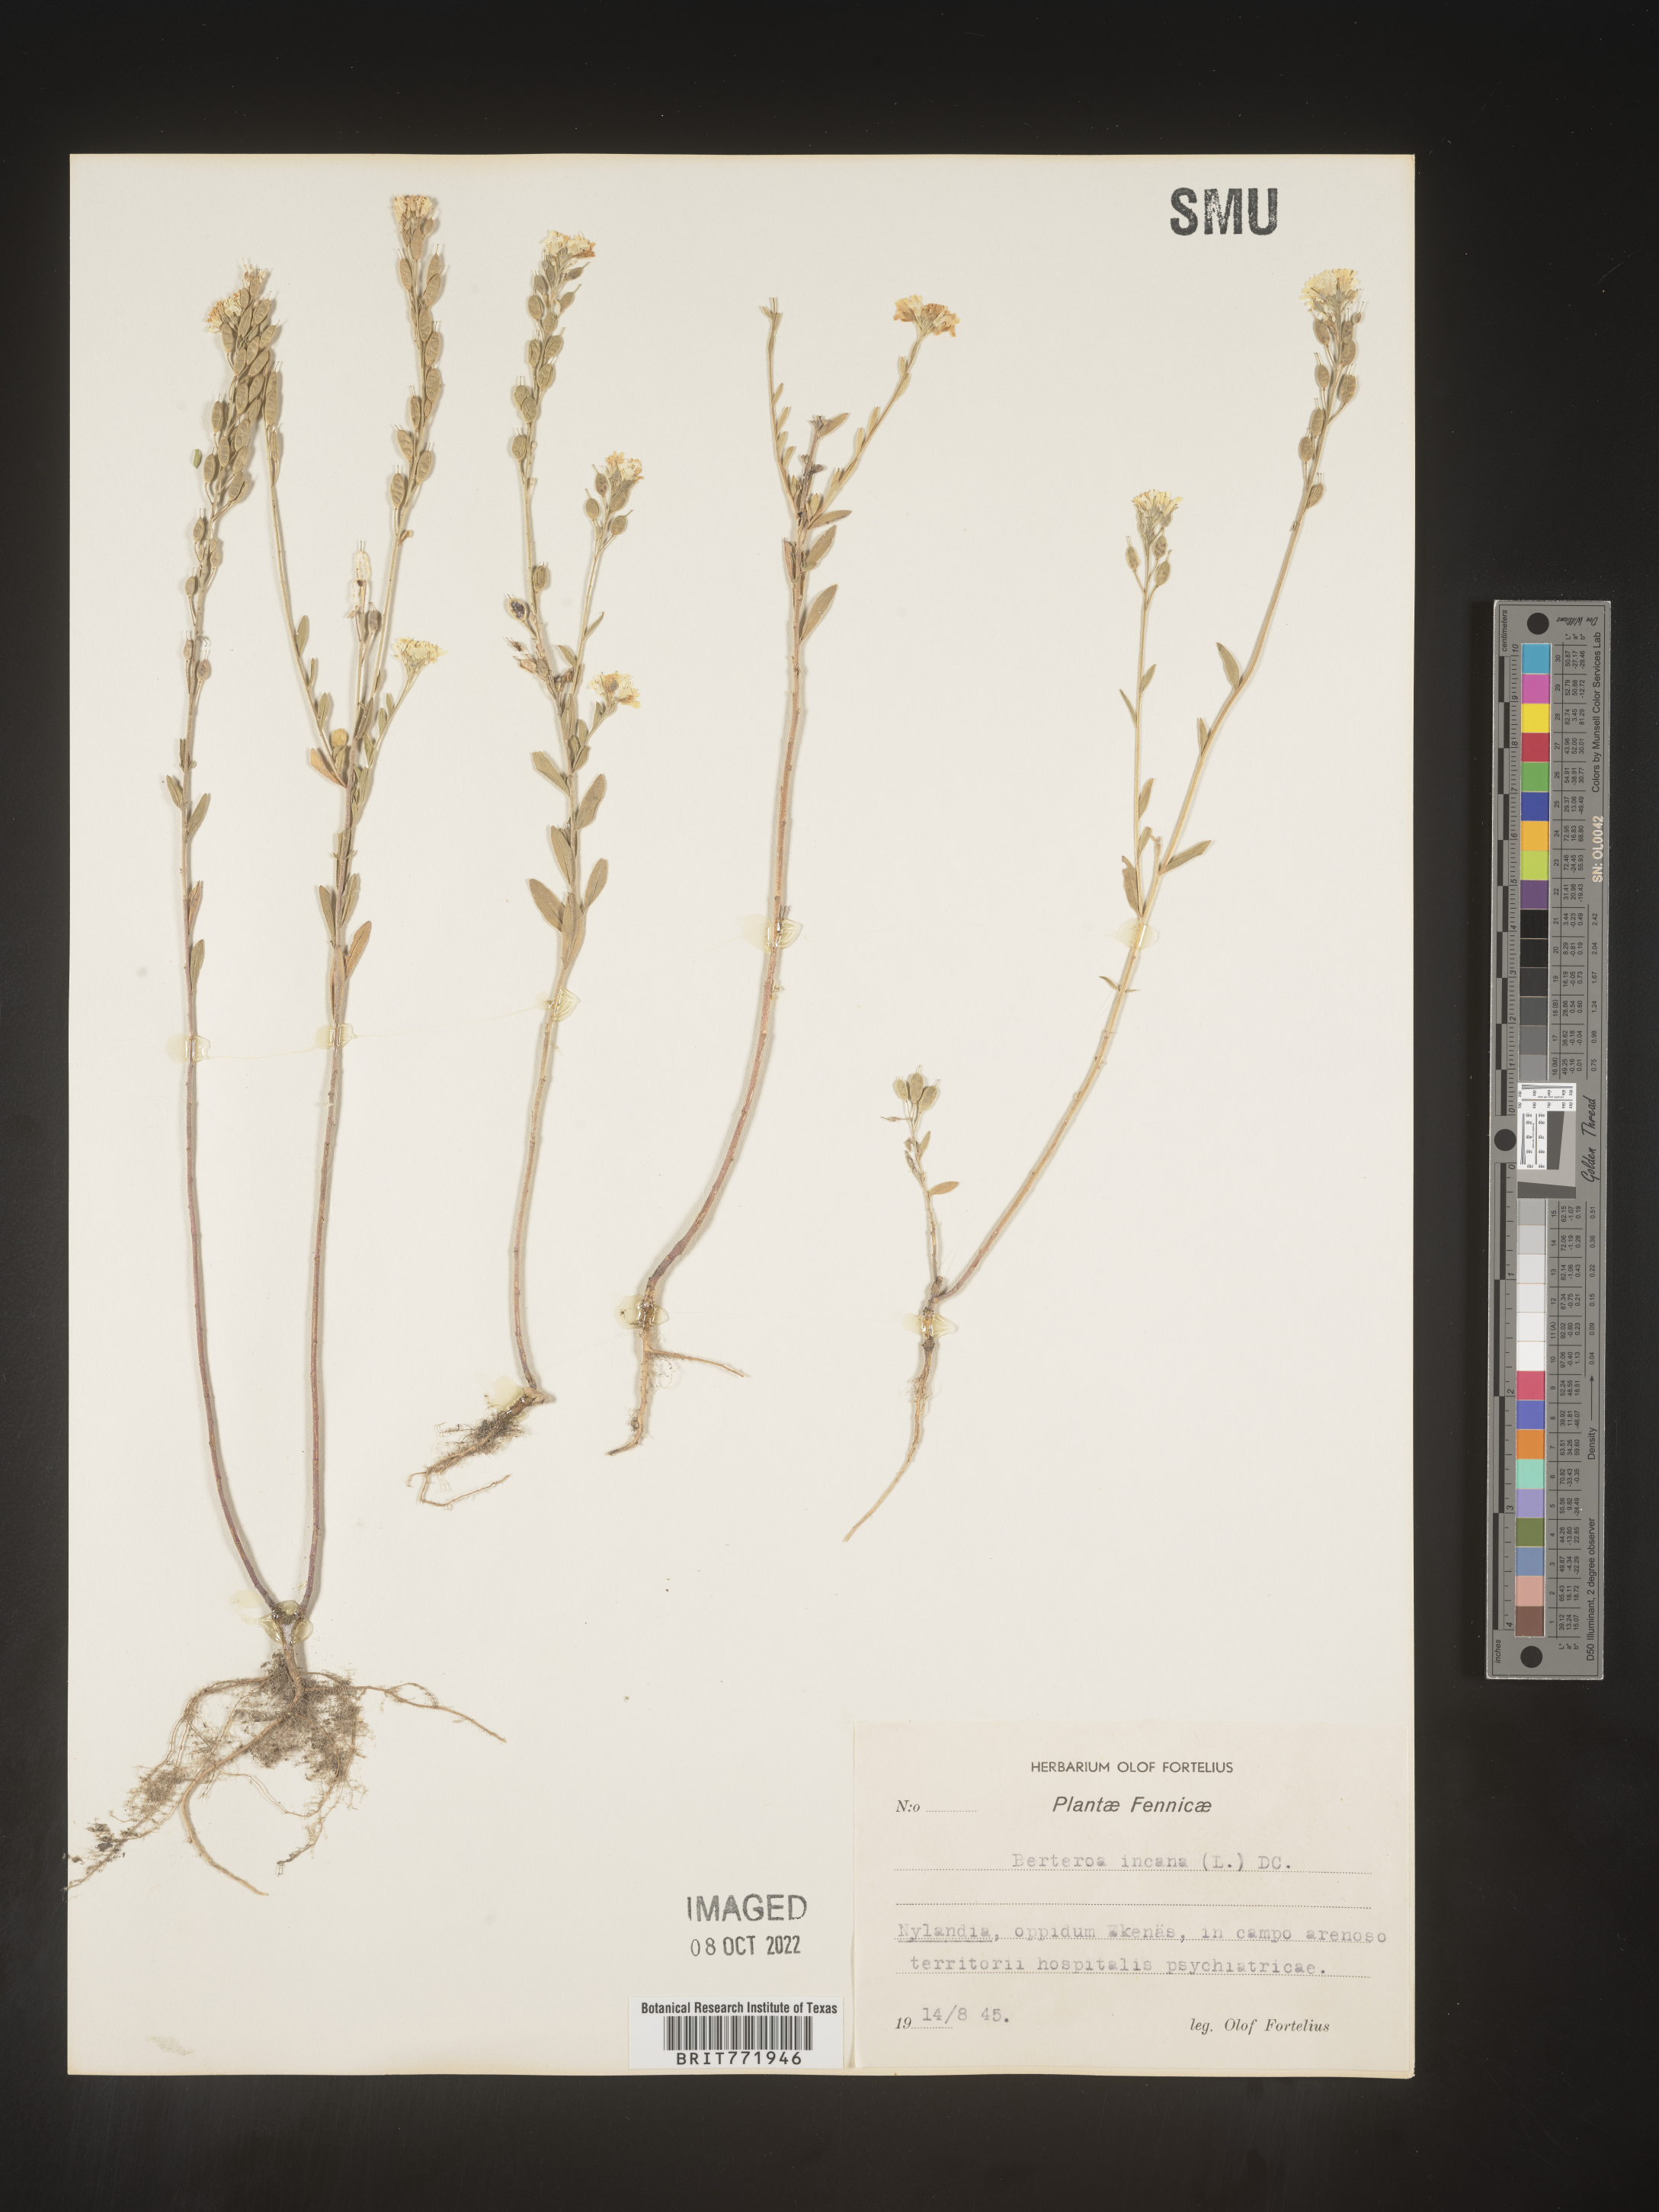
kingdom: Plantae
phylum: Tracheophyta
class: Magnoliopsida
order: Brassicales
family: Brassicaceae
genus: Berteroa
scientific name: Berteroa
